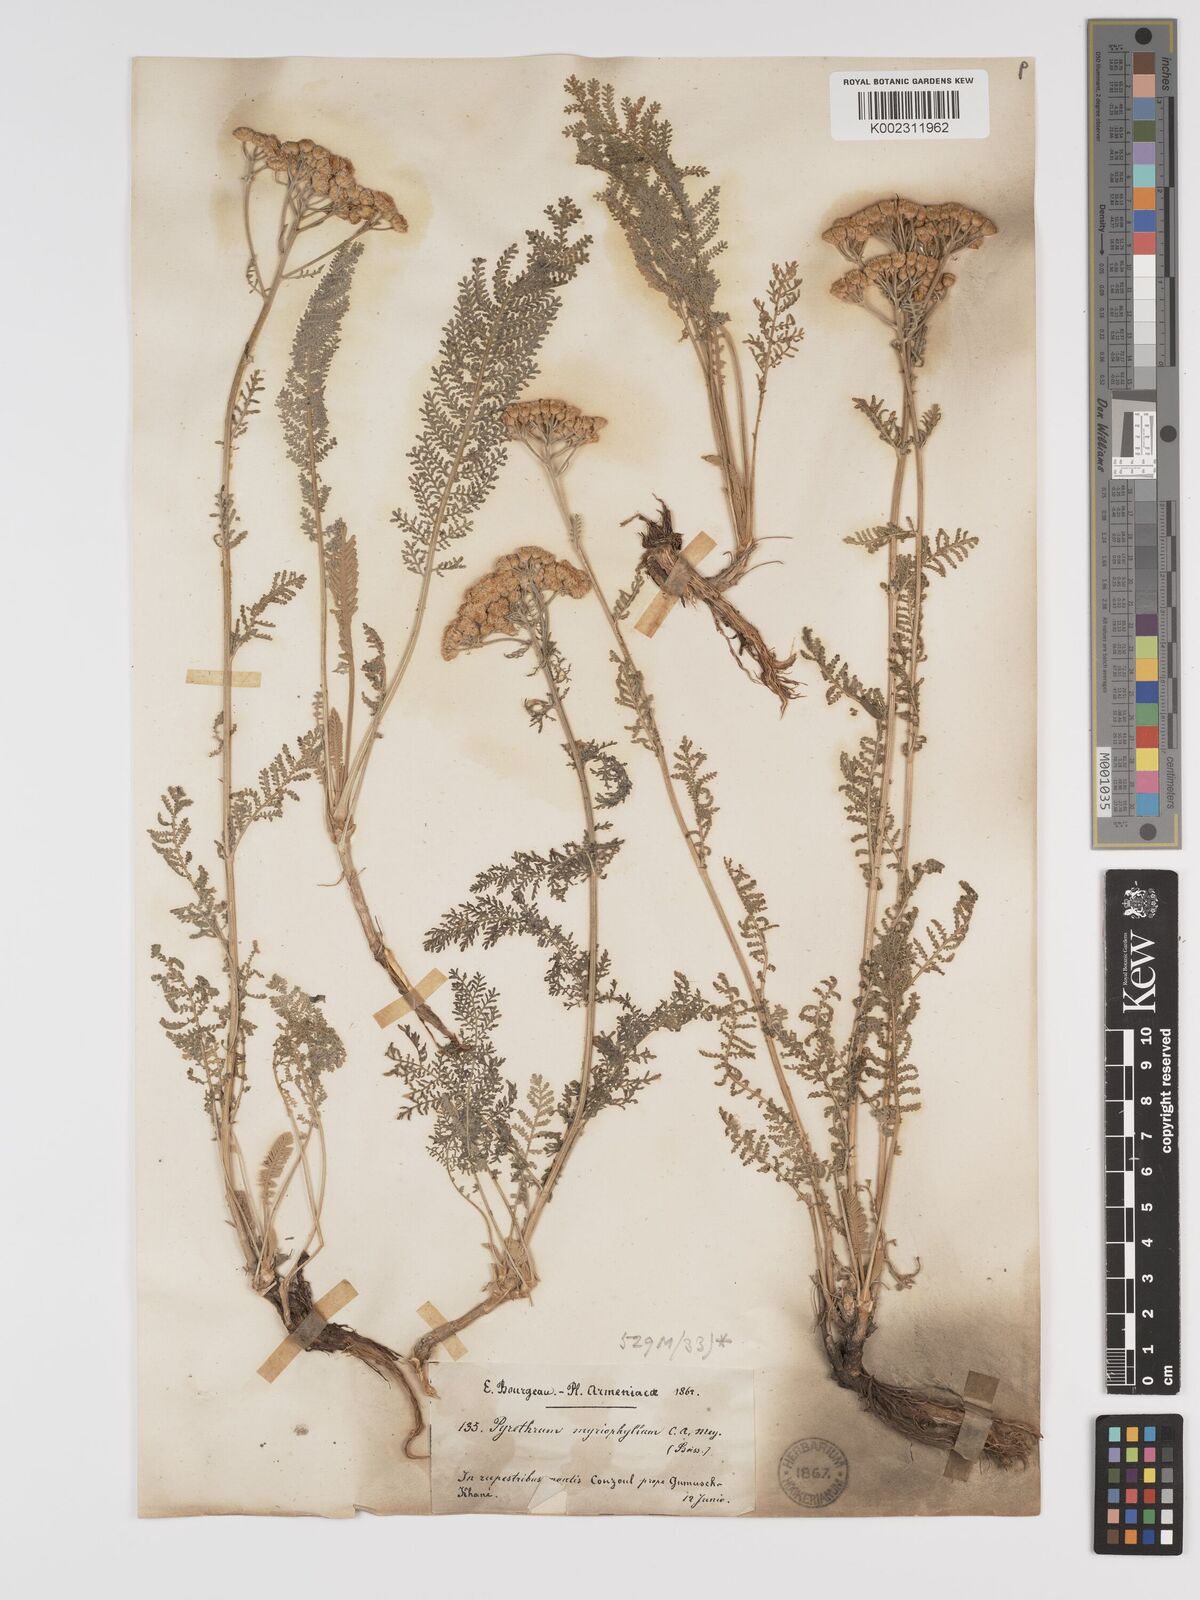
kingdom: Plantae
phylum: Tracheophyta
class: Magnoliopsida
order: Asterales
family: Asteraceae
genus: Tanacetum
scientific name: Tanacetum polycephalum
